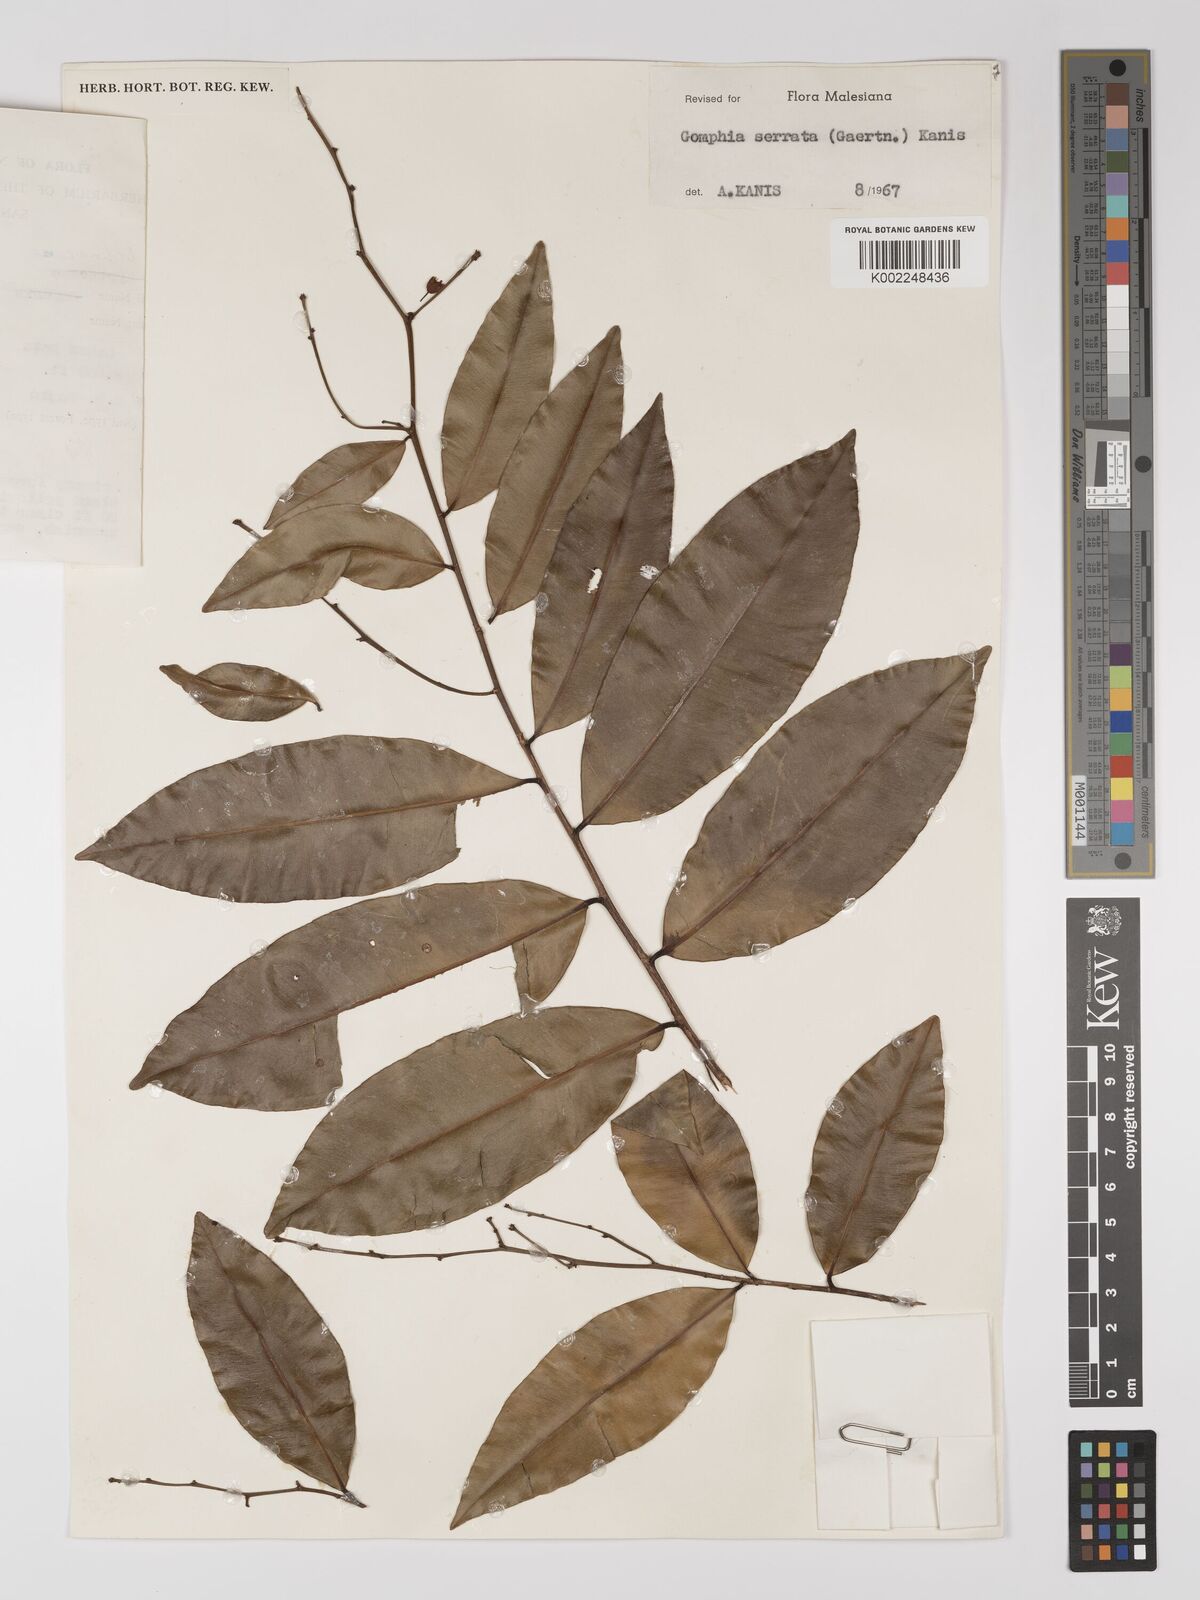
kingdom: Plantae
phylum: Tracheophyta
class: Magnoliopsida
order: Malpighiales
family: Ochnaceae
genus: Gomphia
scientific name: Gomphia serrata
